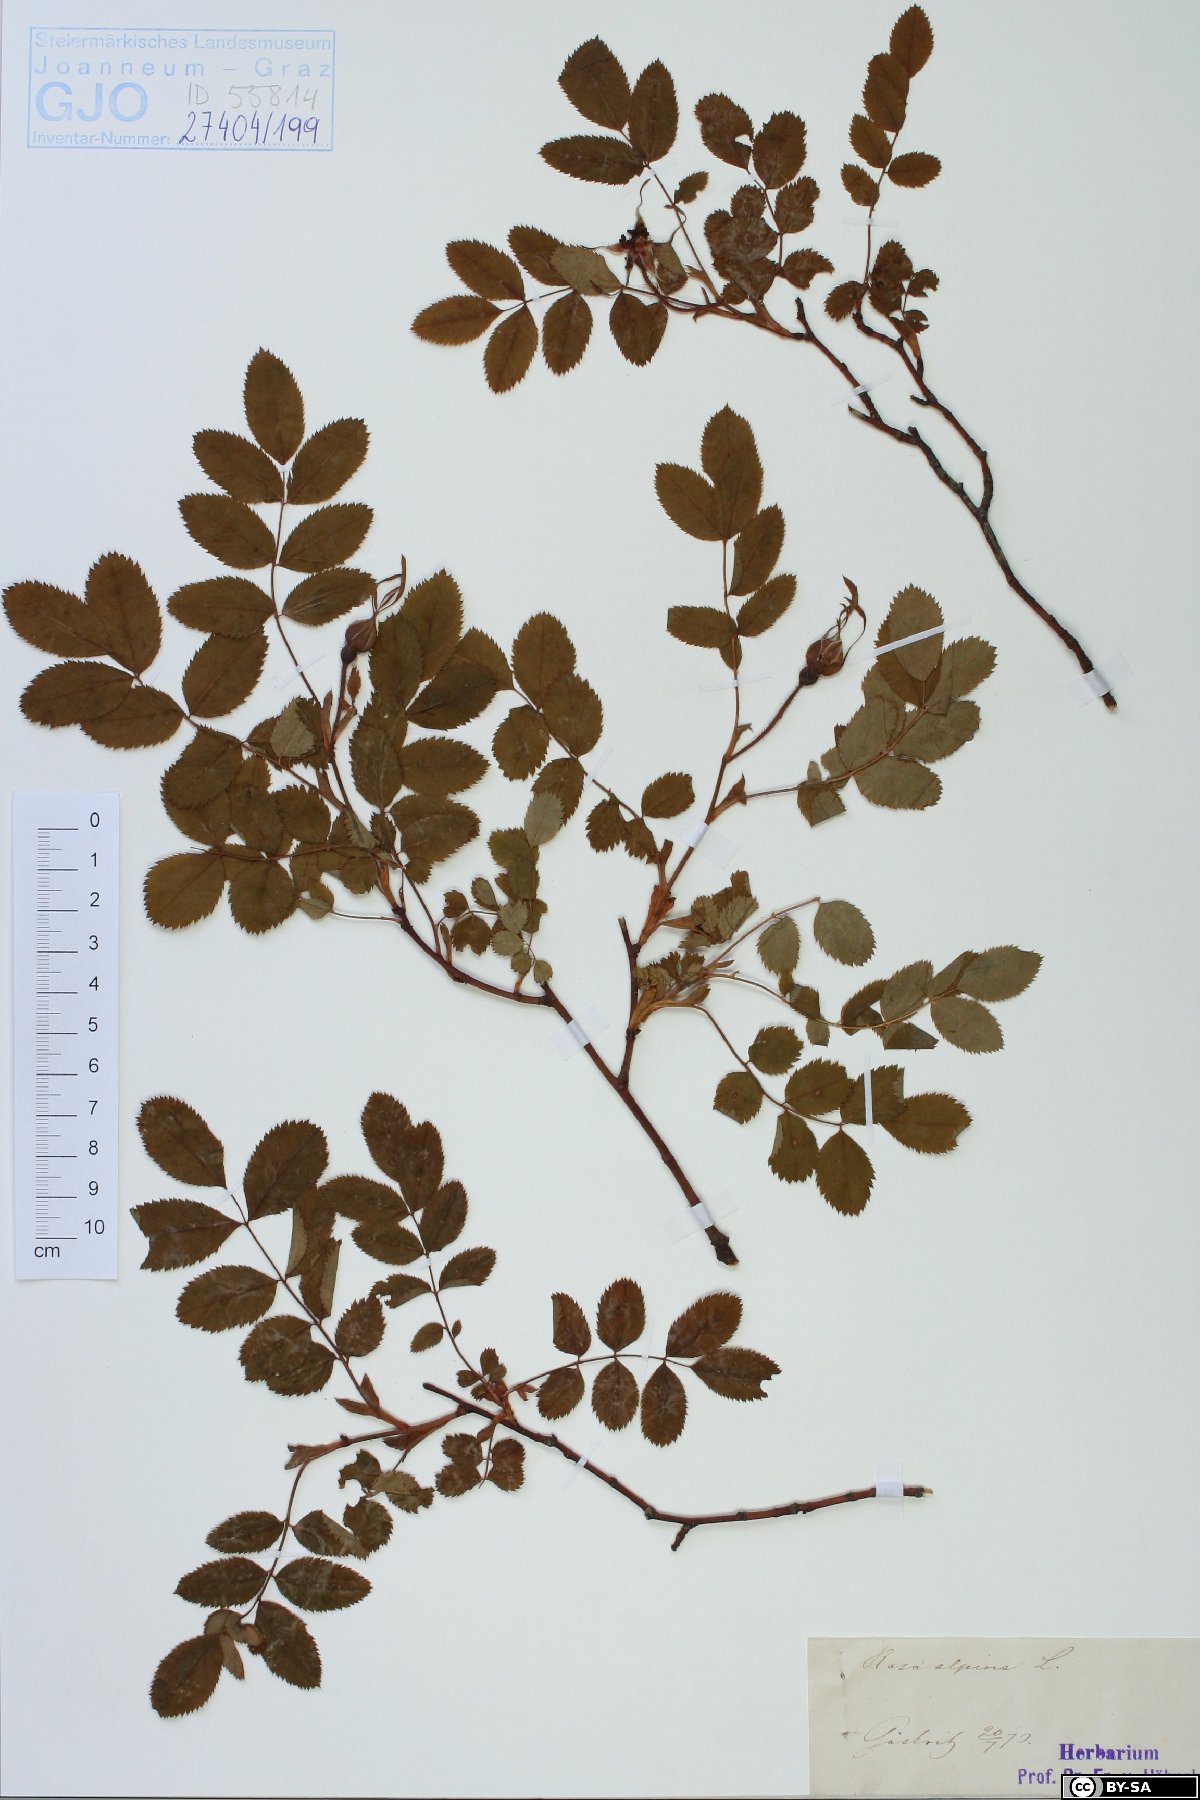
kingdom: Plantae
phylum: Tracheophyta
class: Magnoliopsida
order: Rosales
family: Rosaceae
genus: Rosa
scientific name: Rosa pendulina
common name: Alpine rose
